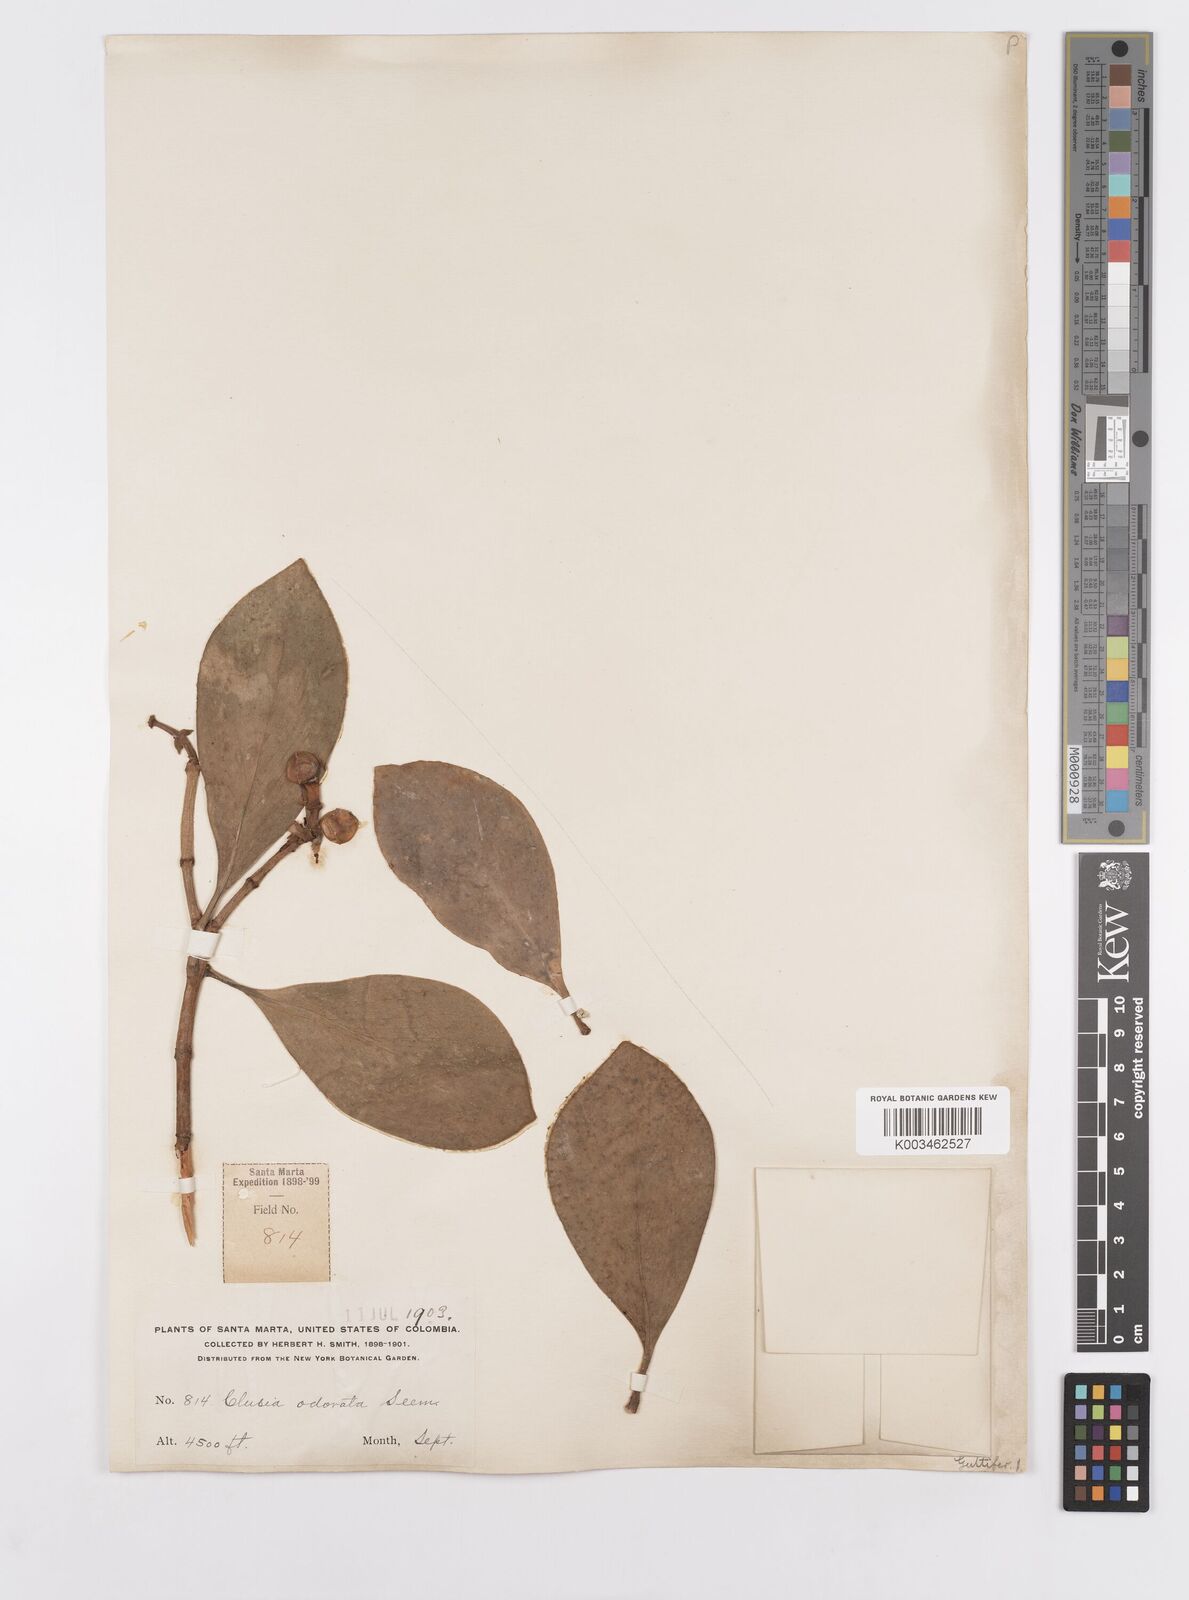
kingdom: Plantae
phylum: Tracheophyta
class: Magnoliopsida
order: Malpighiales
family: Clusiaceae
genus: Clusia
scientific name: Clusia minor
